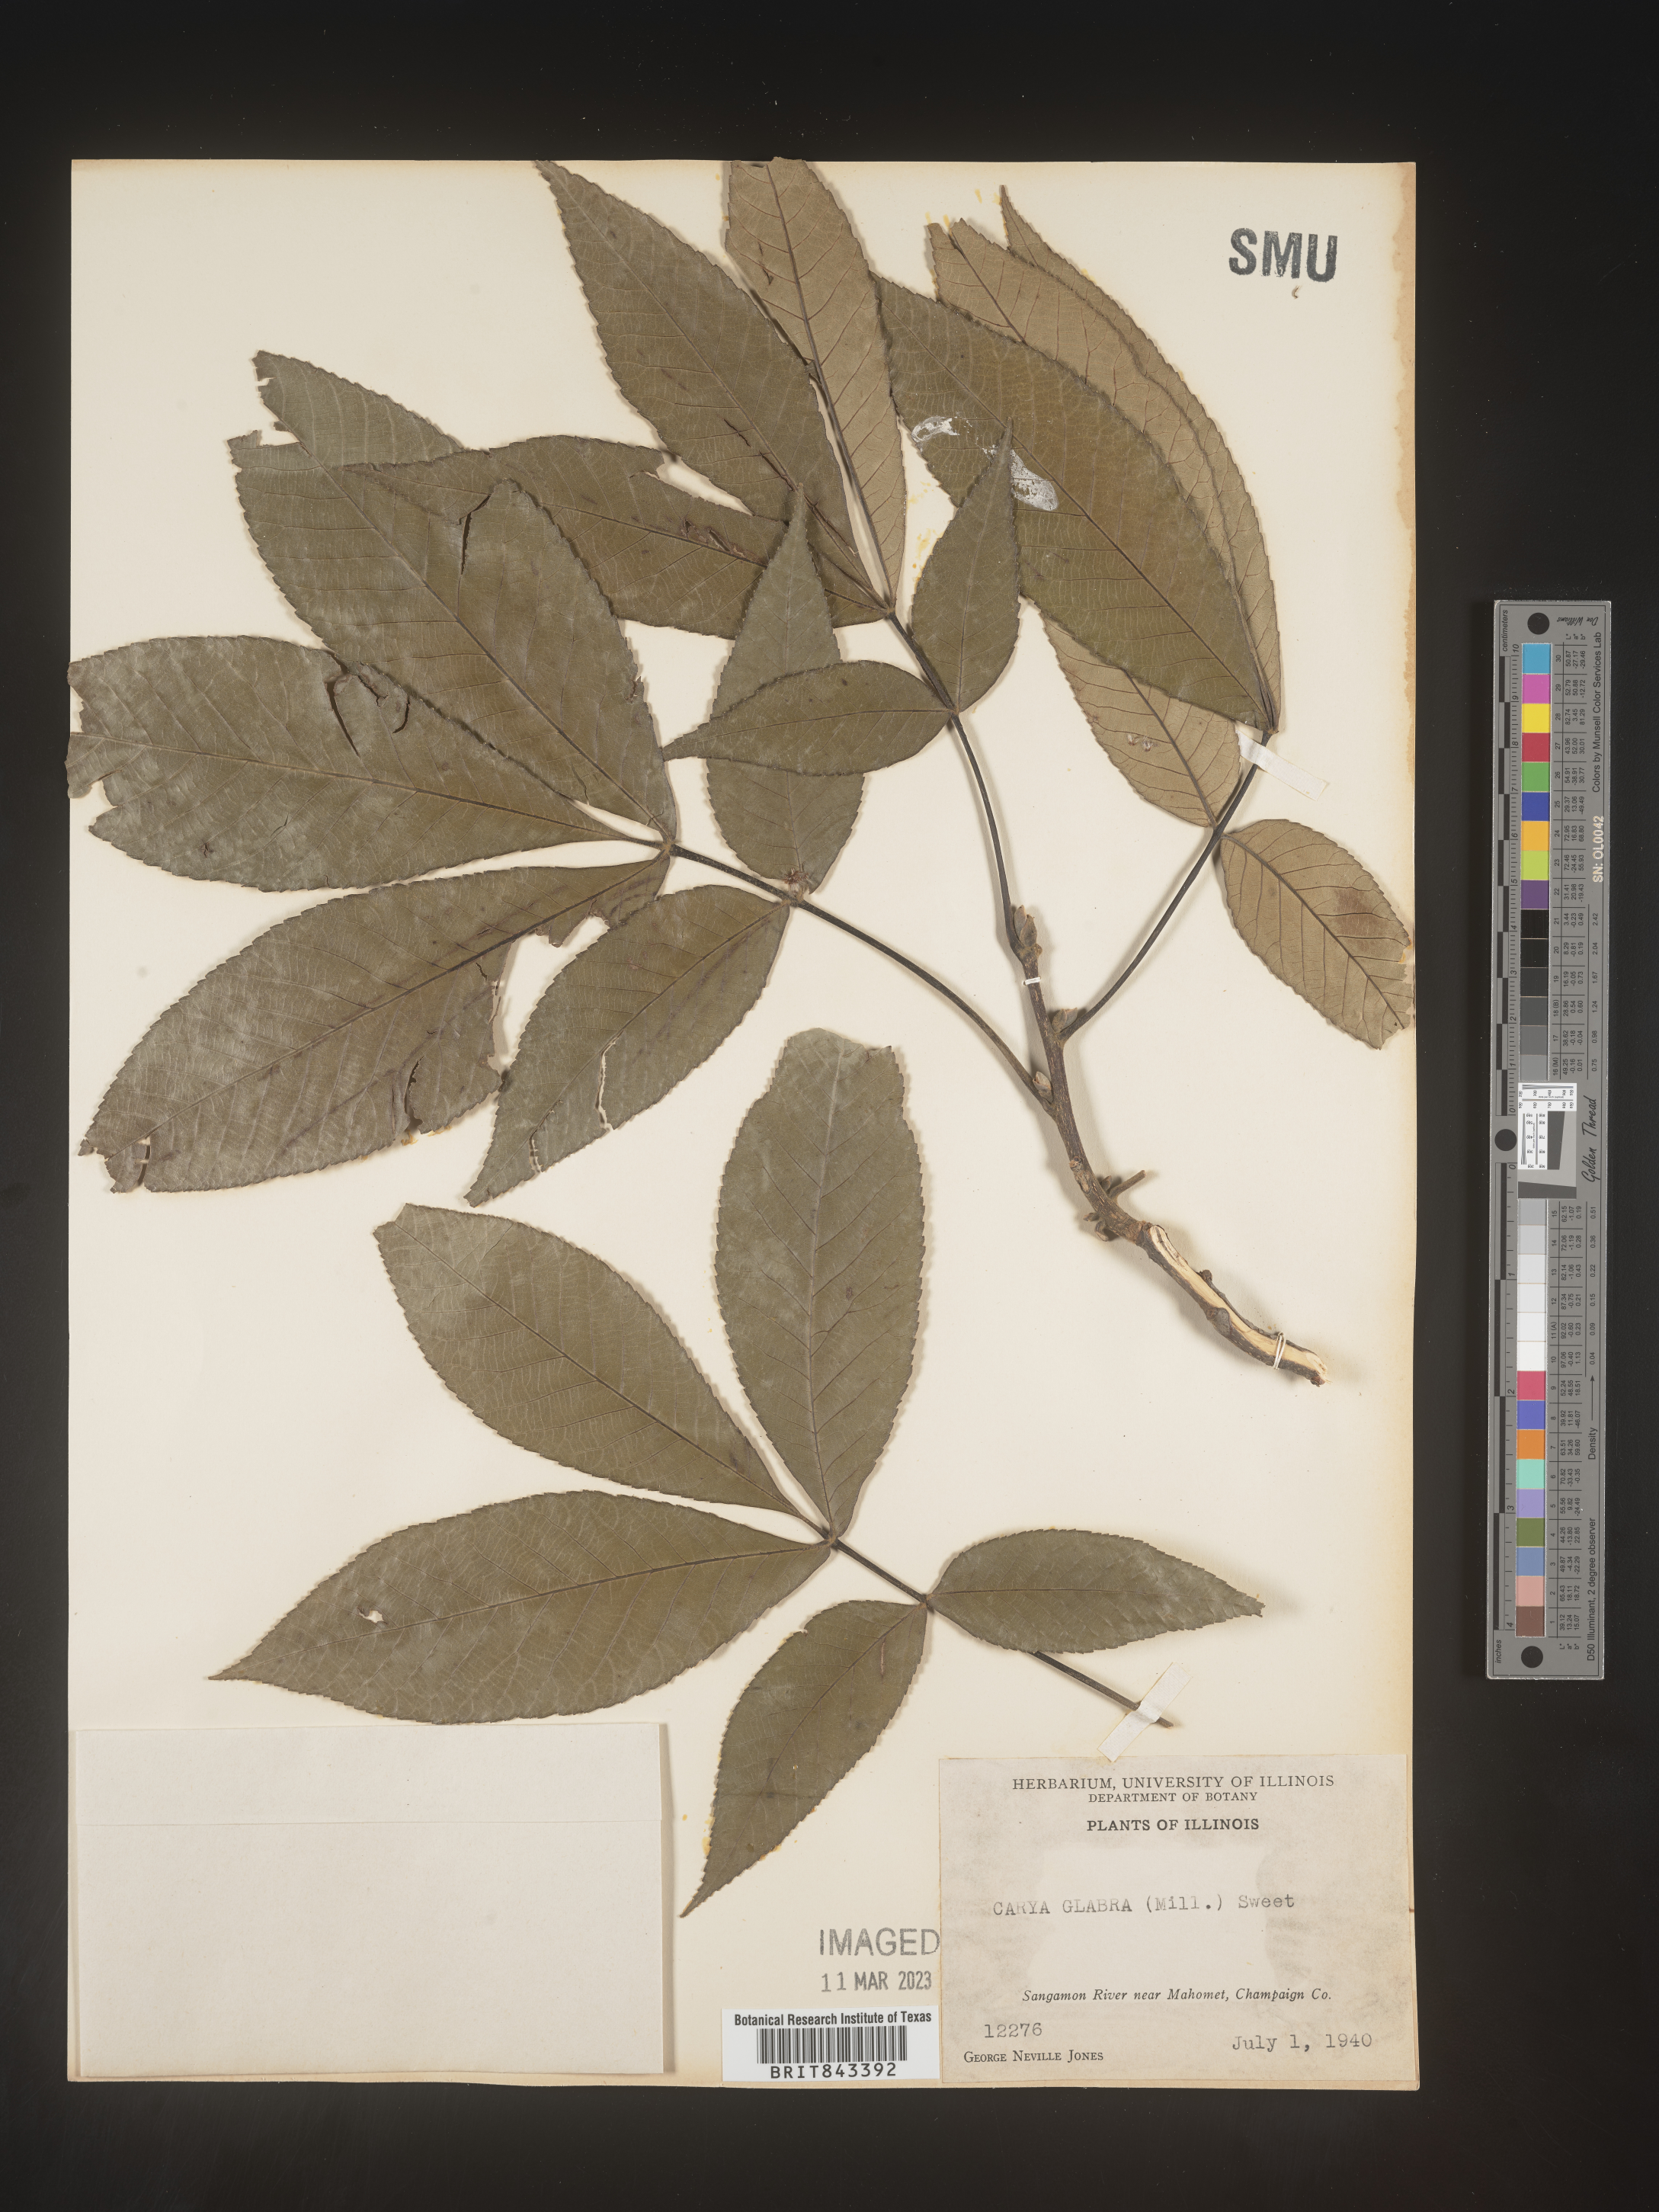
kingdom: Plantae
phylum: Tracheophyta
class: Magnoliopsida
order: Fagales
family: Juglandaceae
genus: Carya
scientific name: Carya glabra
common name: Pignut hickory
